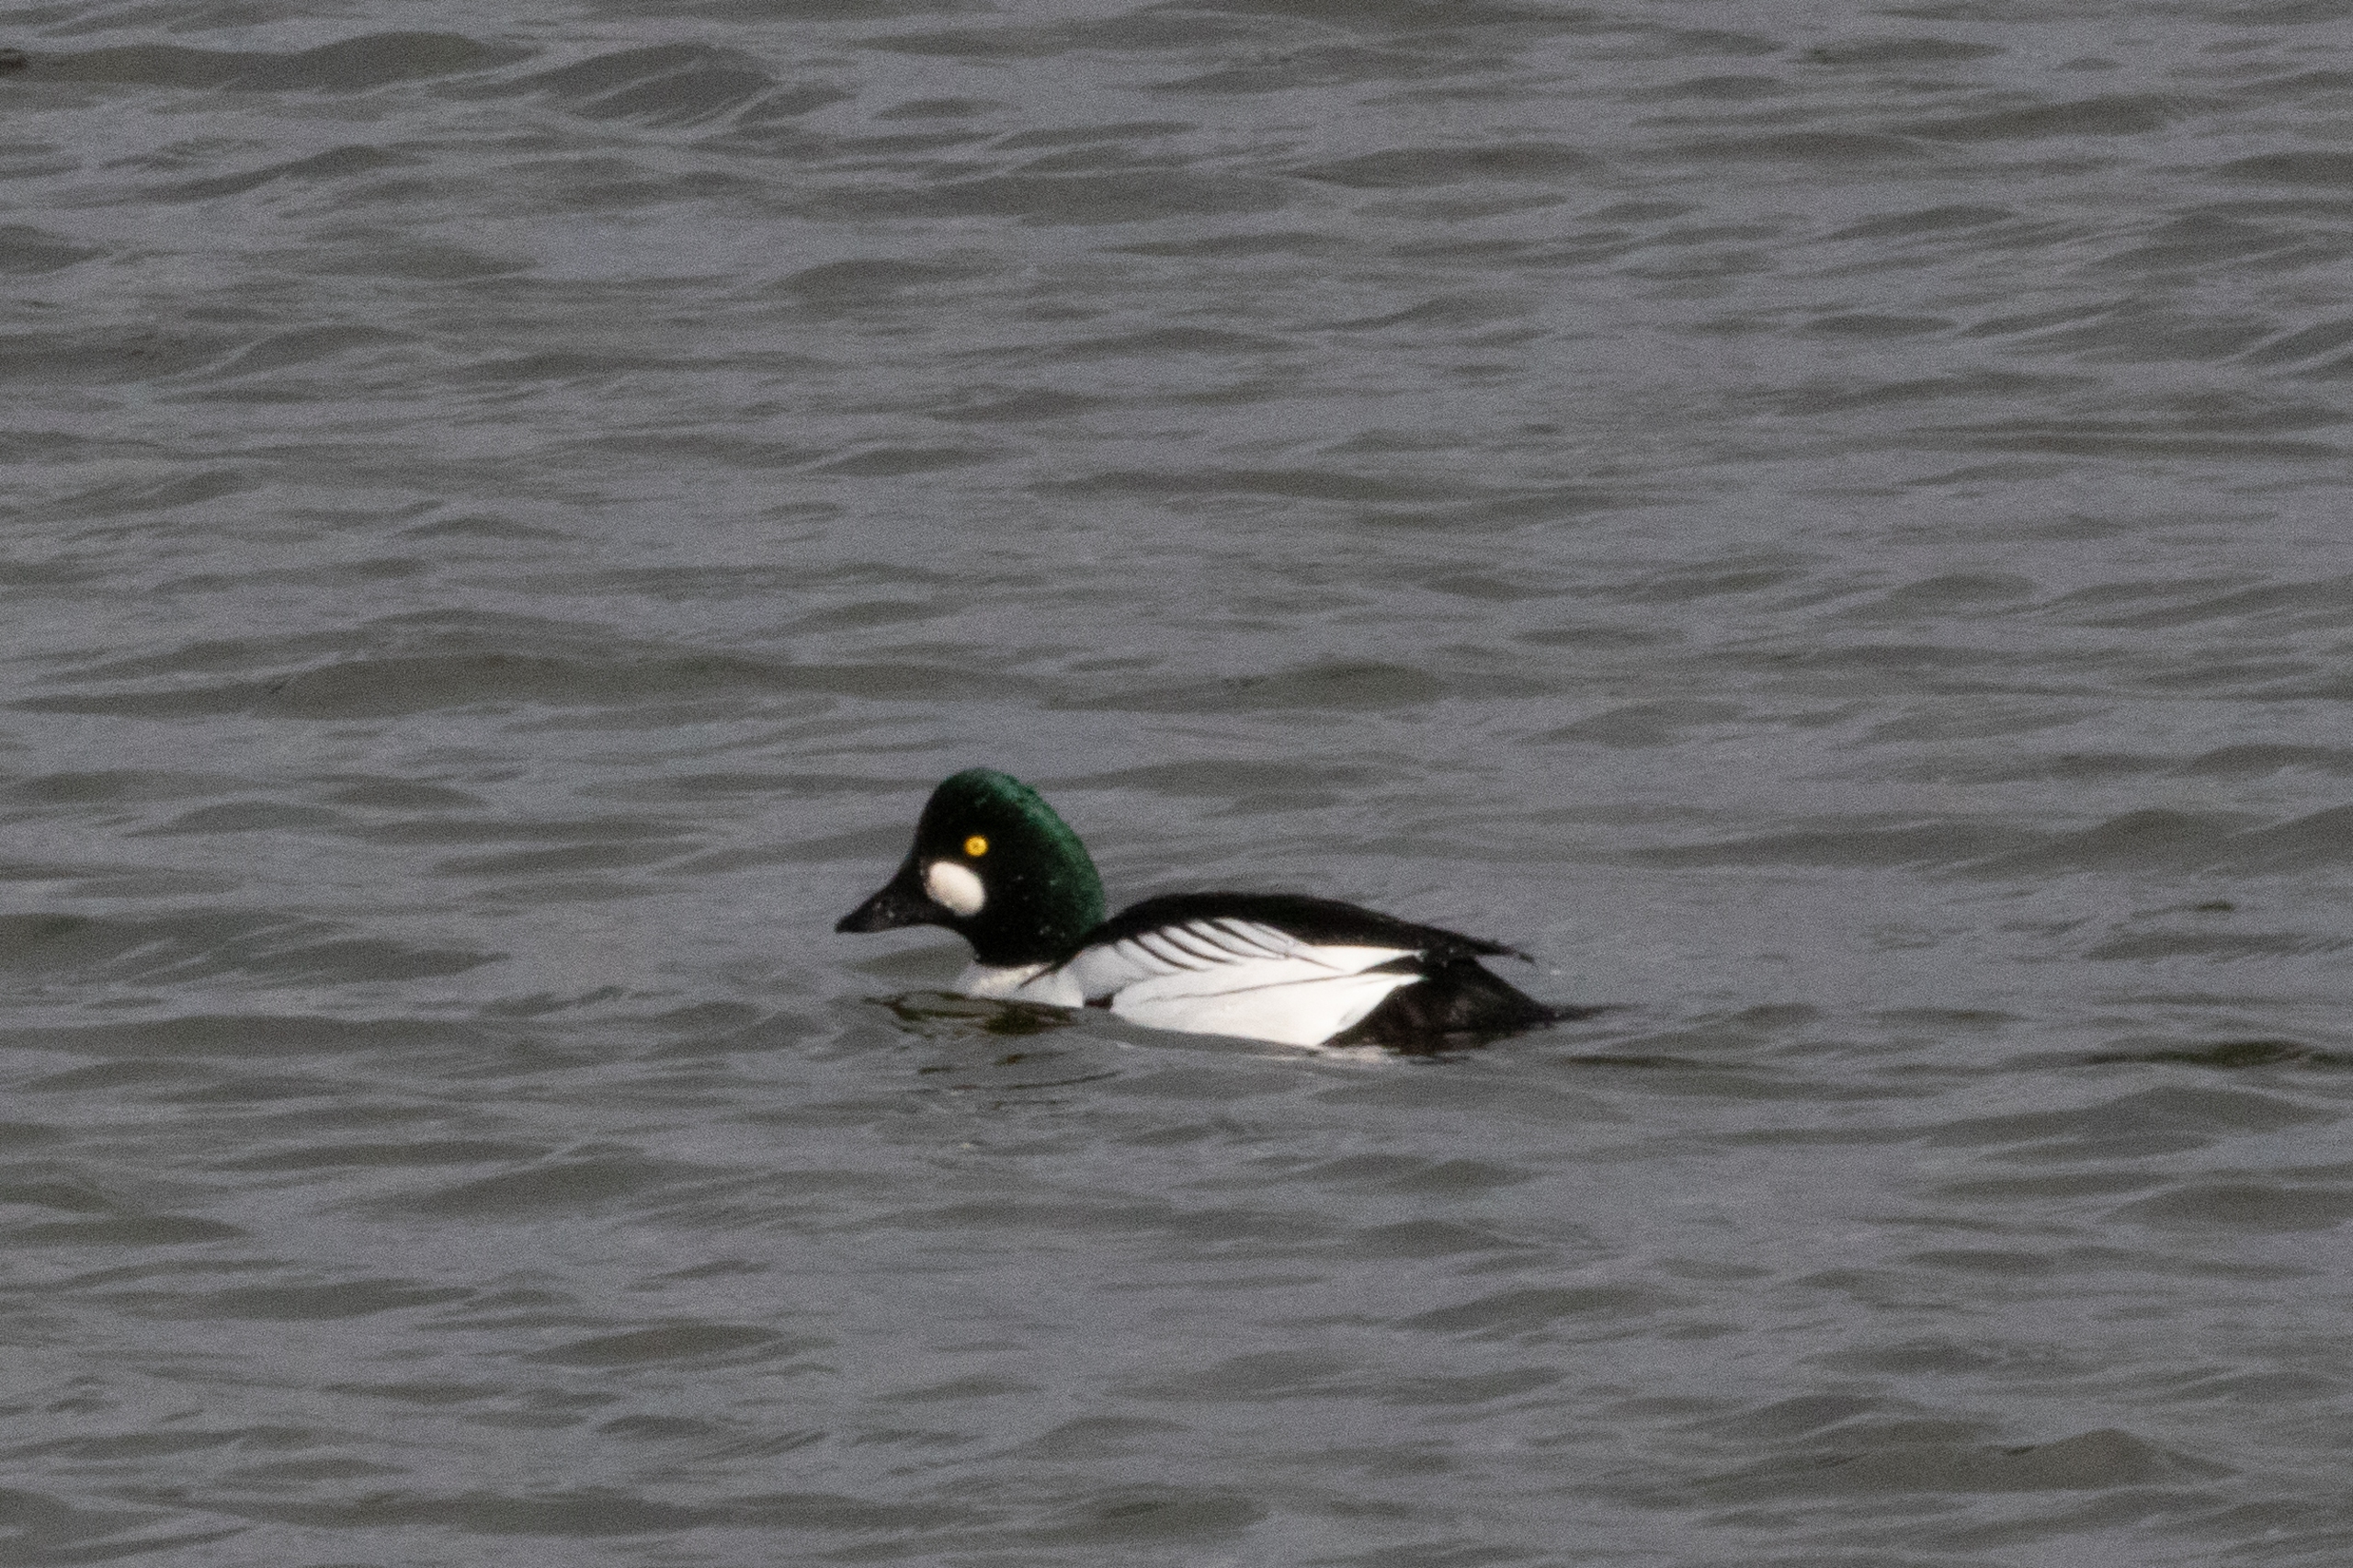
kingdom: Animalia
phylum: Chordata
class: Aves
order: Anseriformes
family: Anatidae
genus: Bucephala
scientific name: Bucephala clangula
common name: Hvinand
